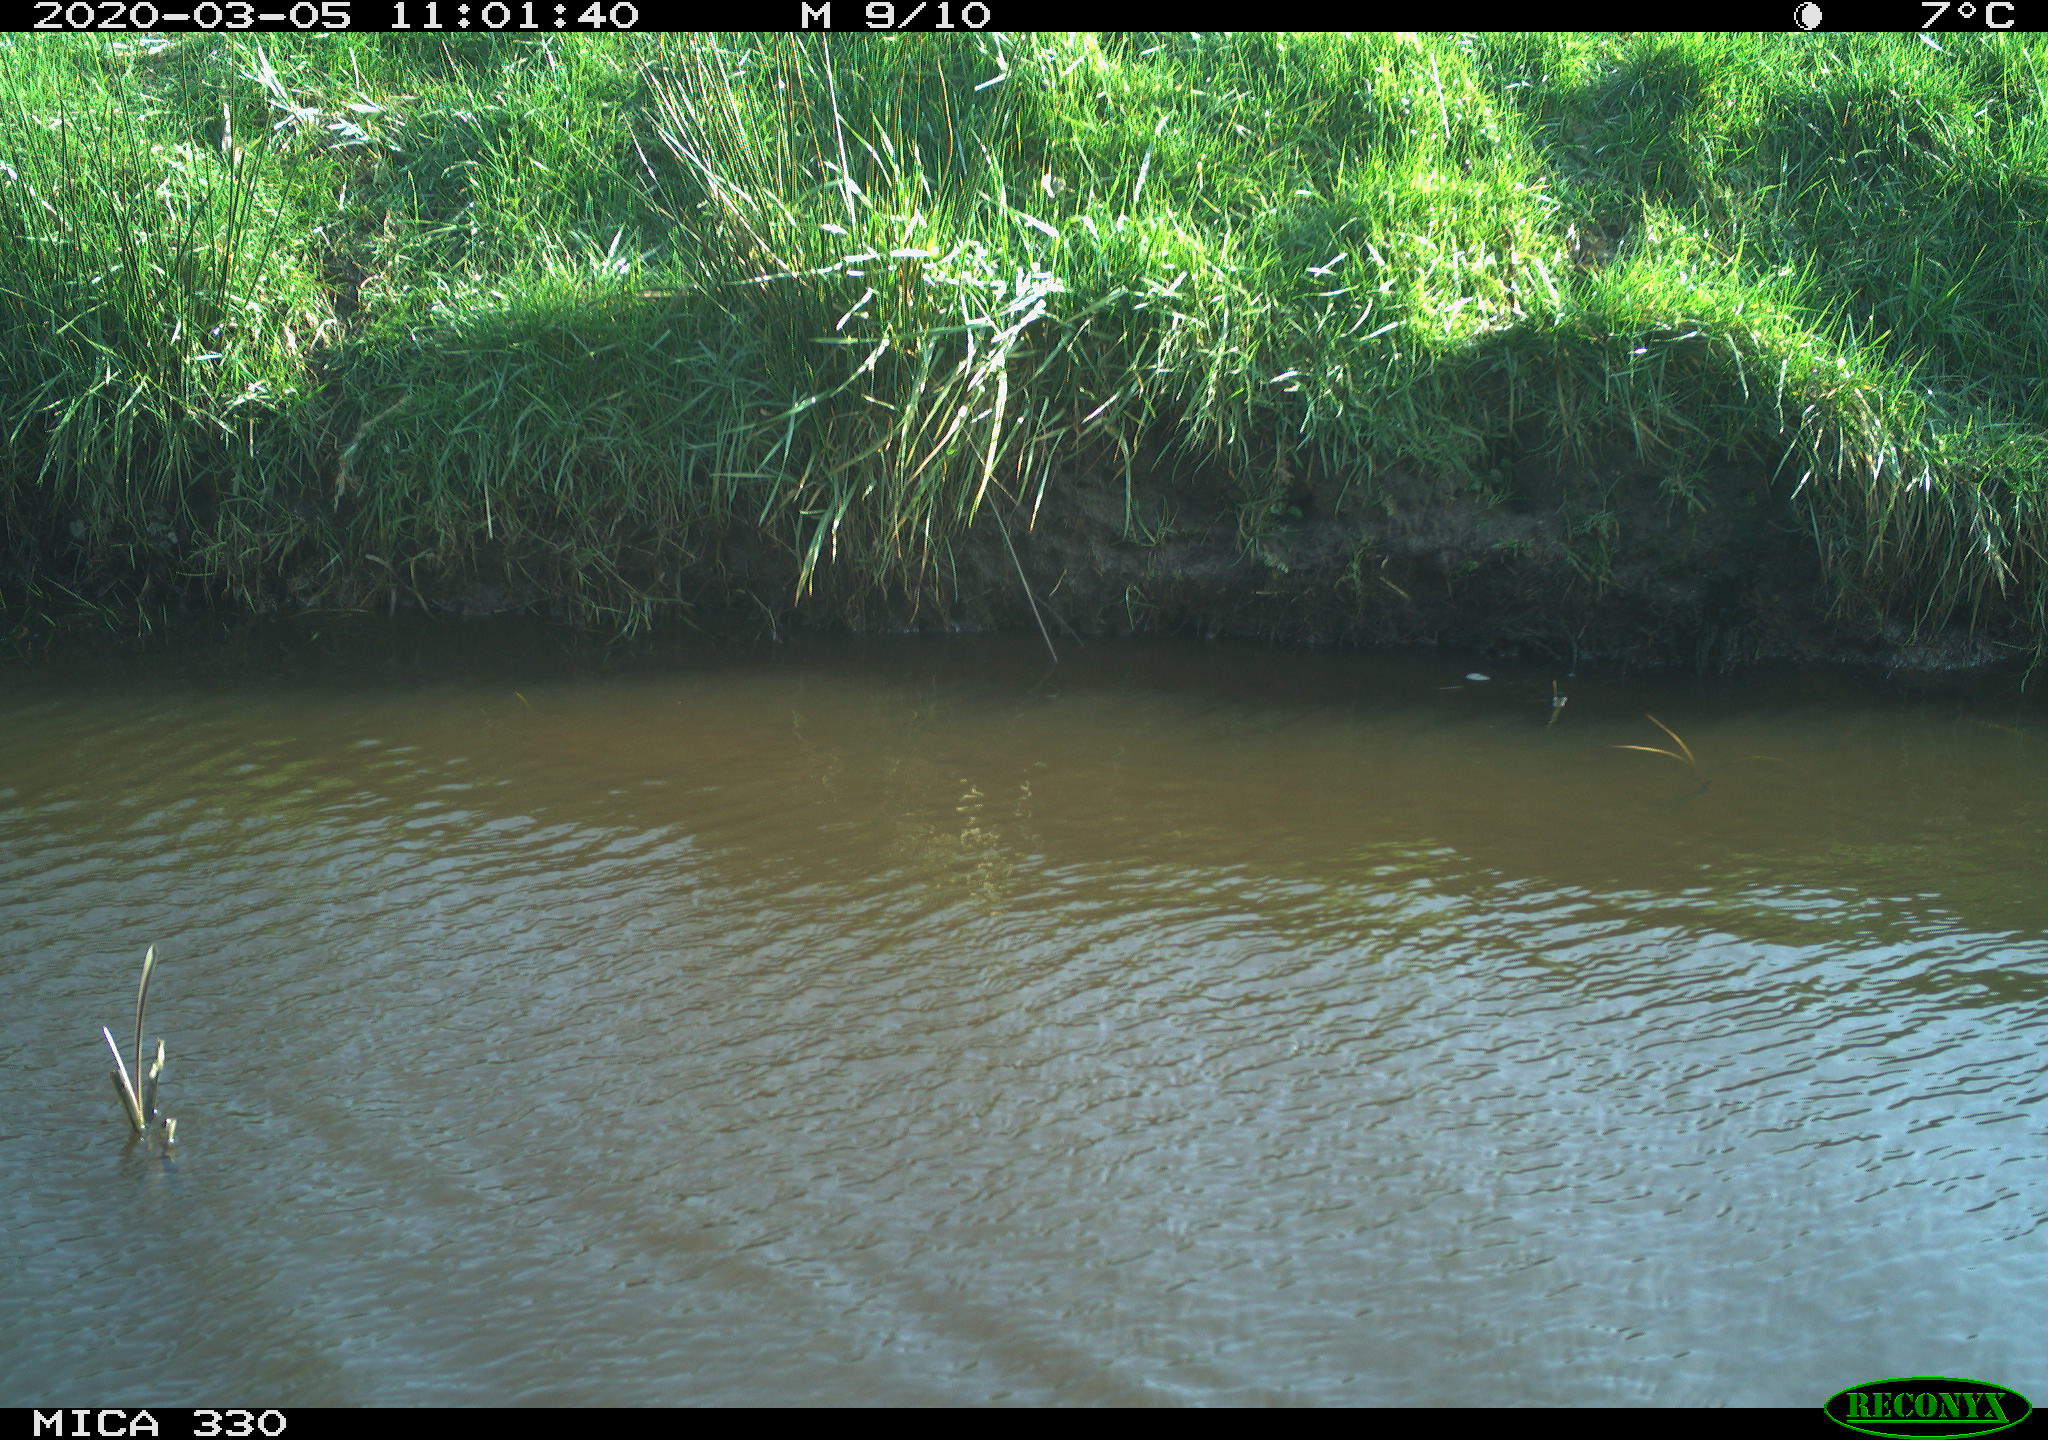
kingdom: Animalia
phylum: Chordata
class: Aves
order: Anseriformes
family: Anatidae
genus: Anas
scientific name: Anas platyrhynchos
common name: Mallard
